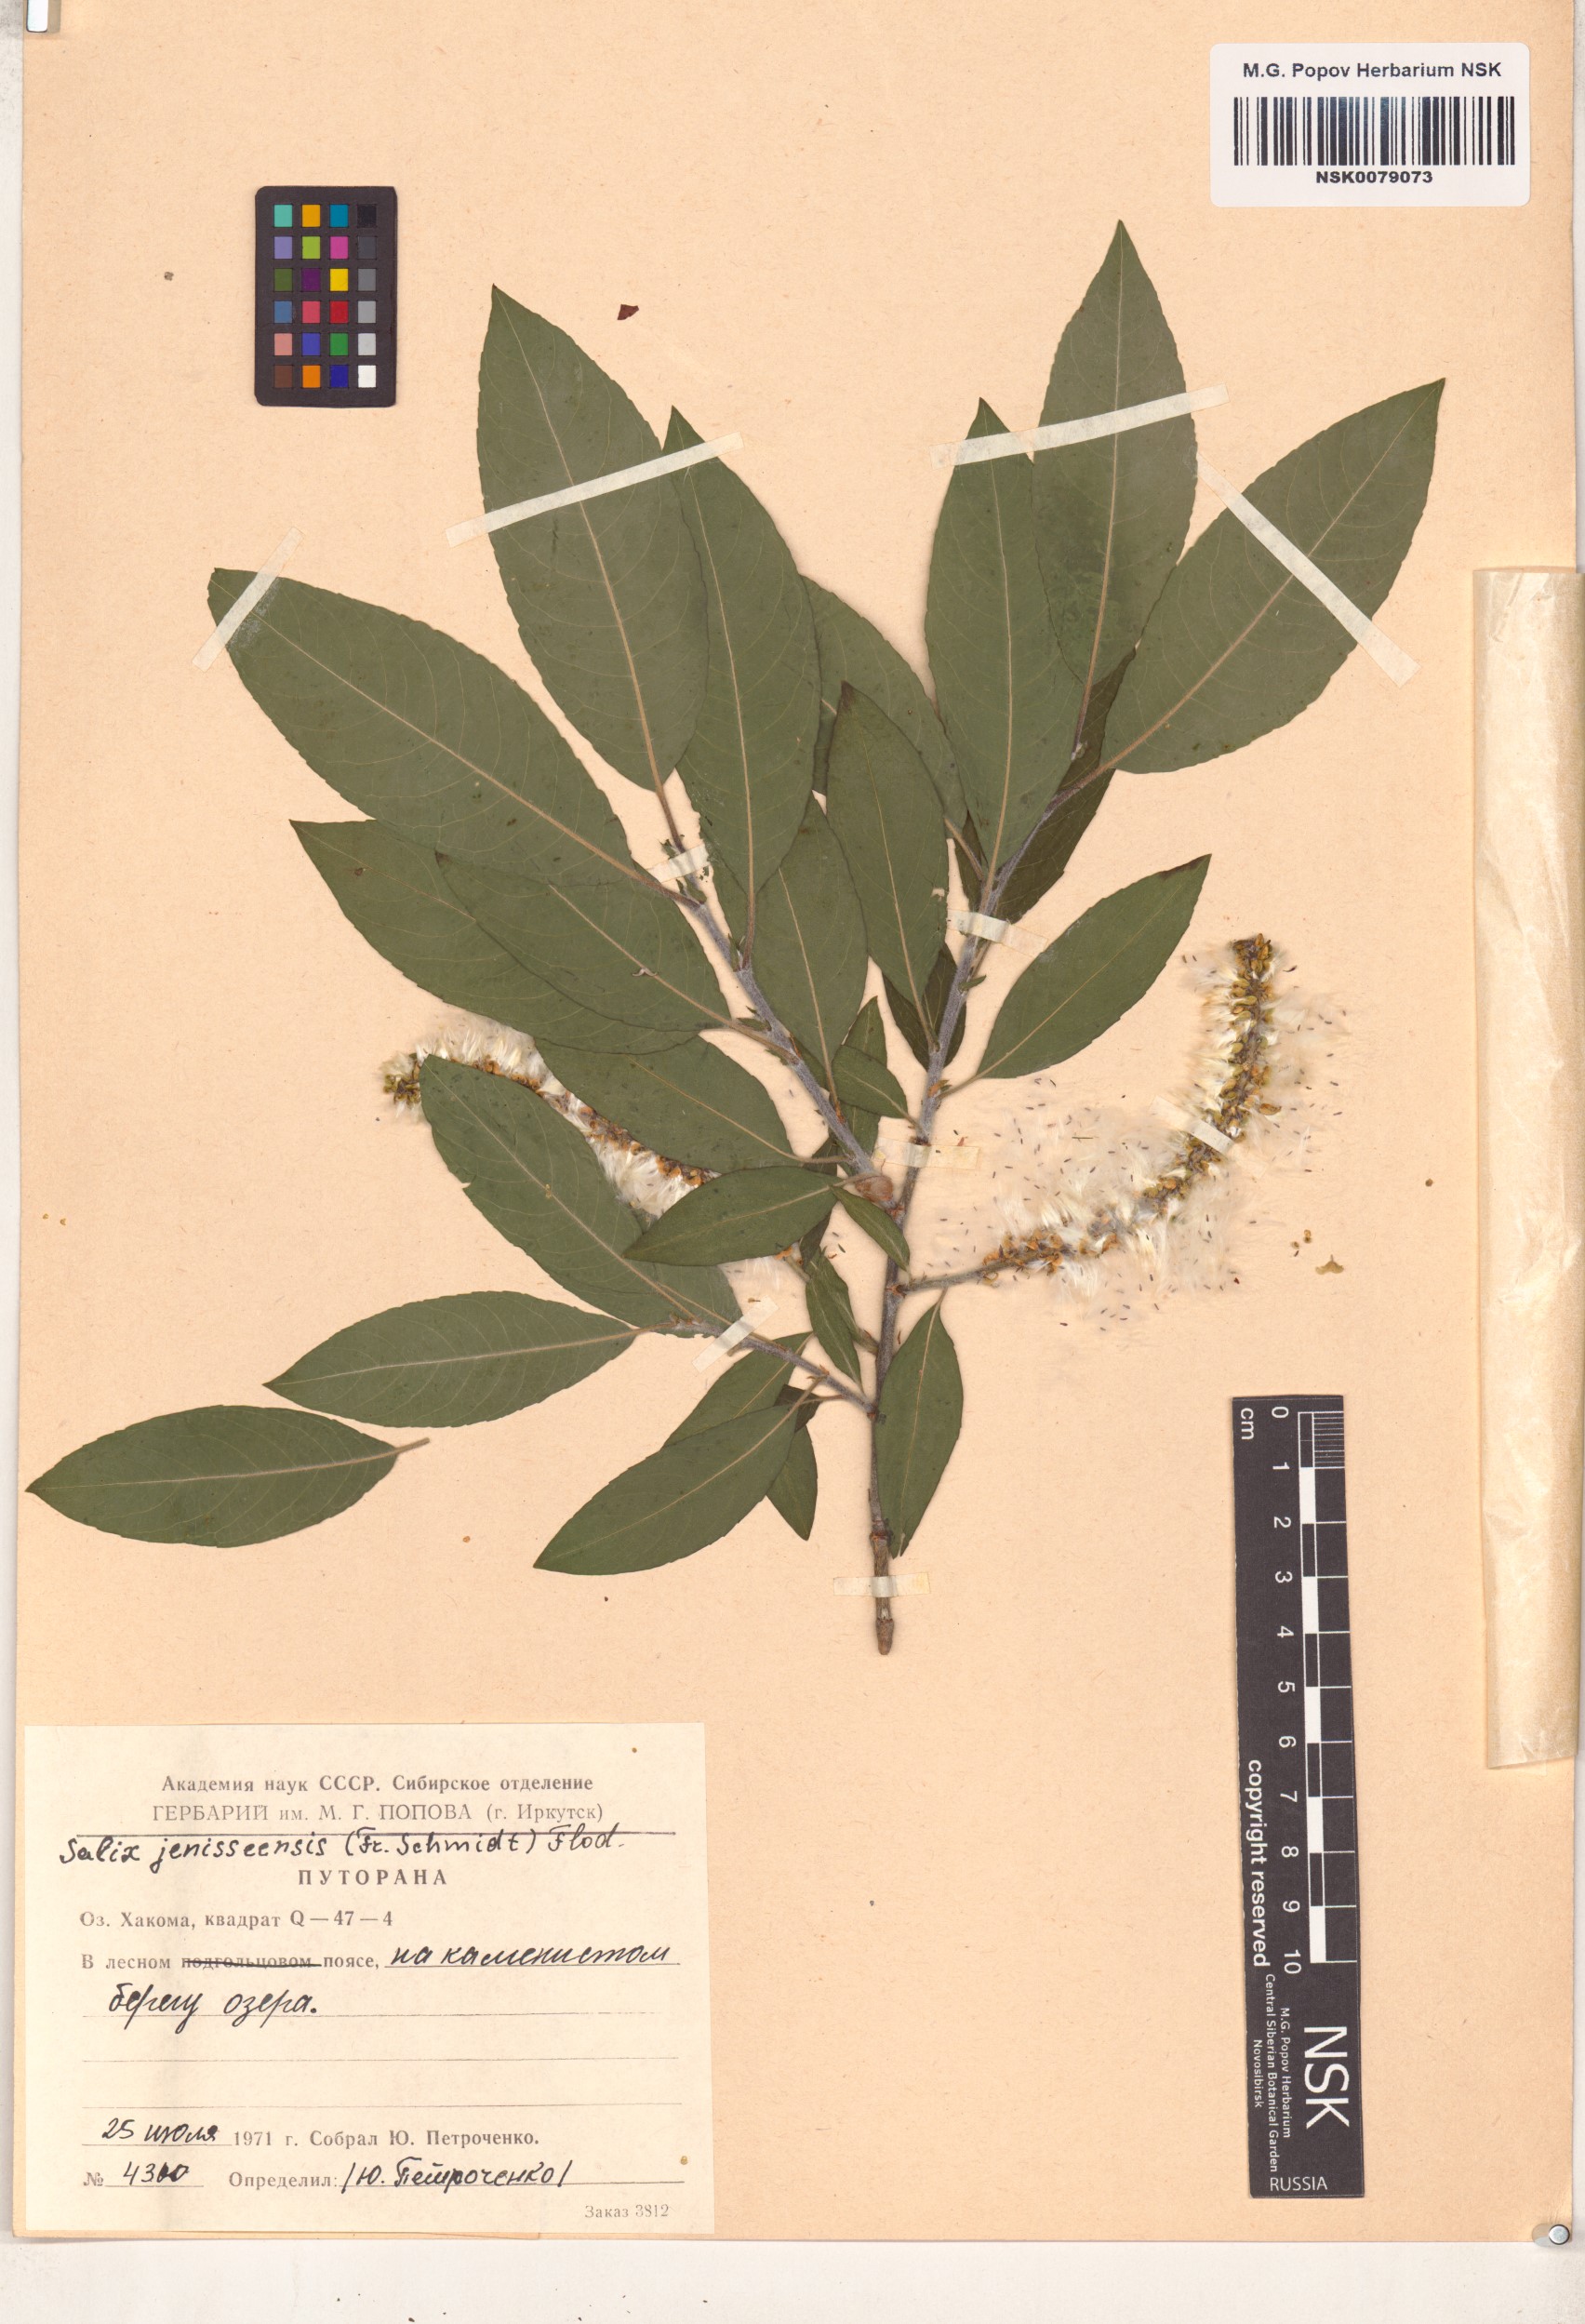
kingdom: Plantae
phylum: Tracheophyta
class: Magnoliopsida
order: Malpighiales
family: Salicaceae
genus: Salix
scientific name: Salix jenisseensis
